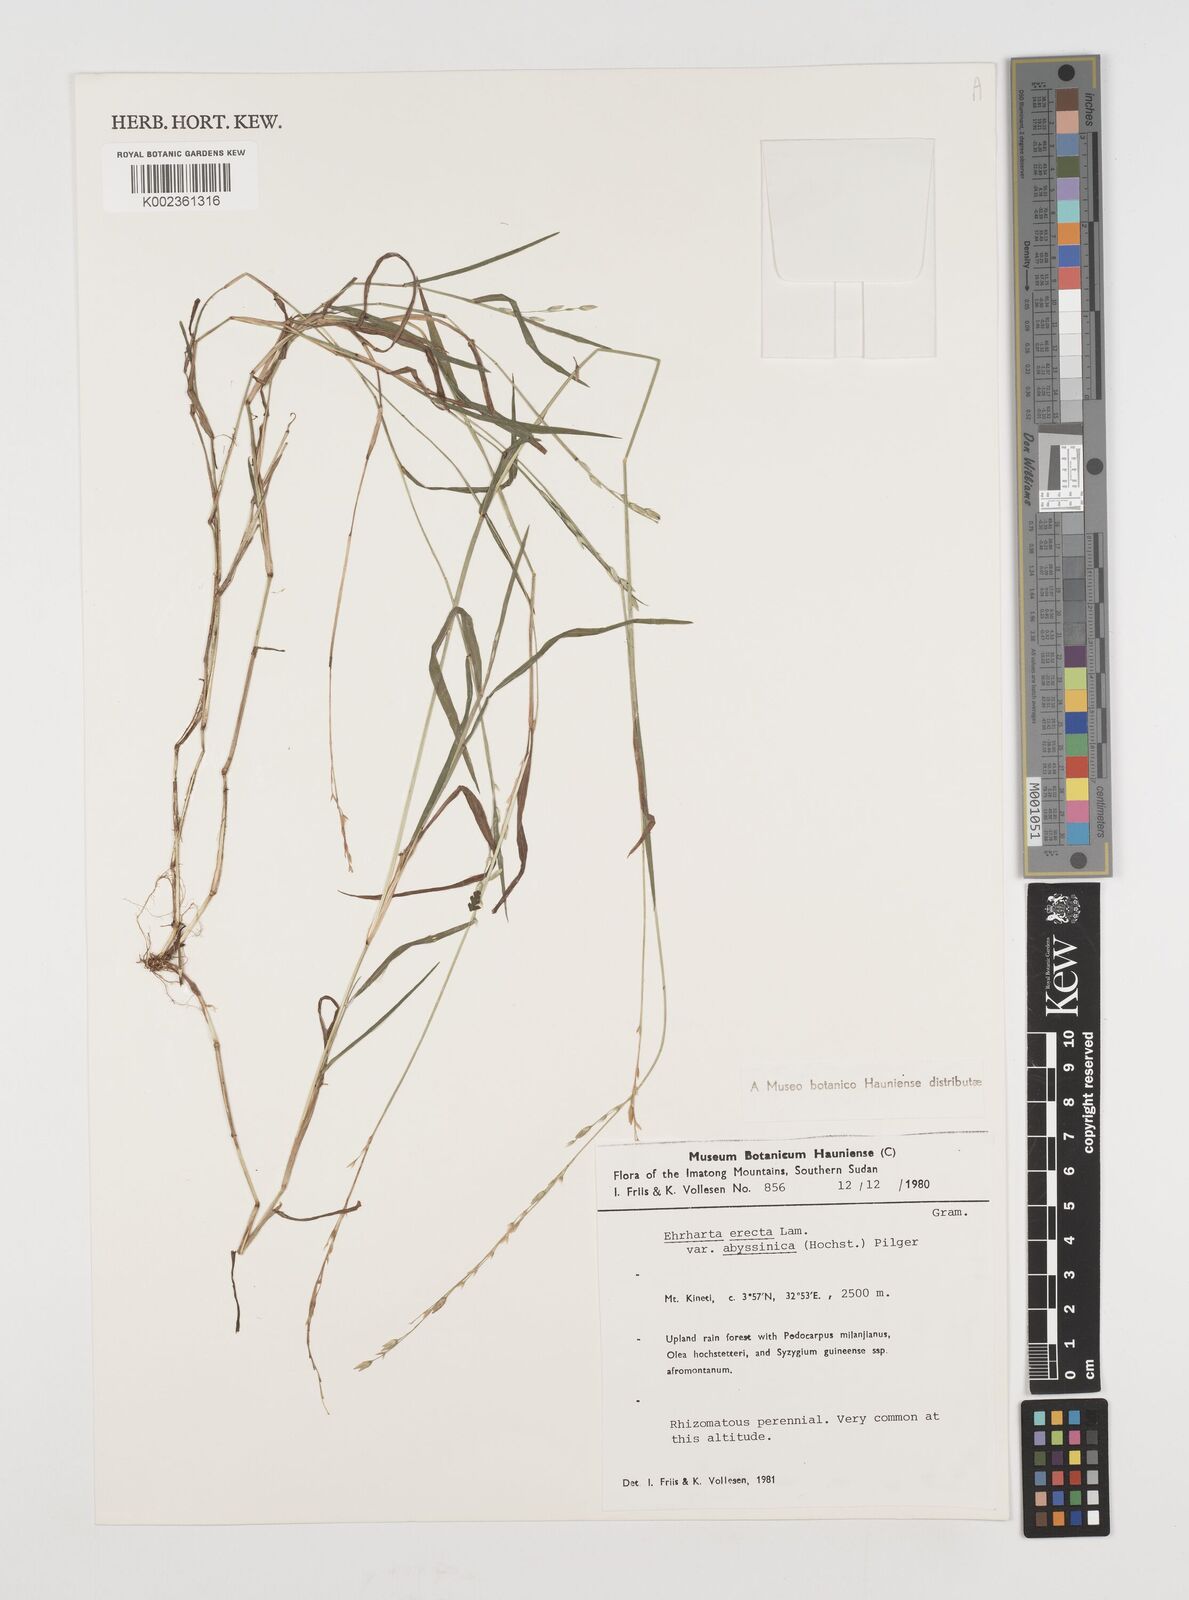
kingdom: Plantae
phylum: Tracheophyta
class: Liliopsida
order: Poales
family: Poaceae
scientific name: Poaceae
